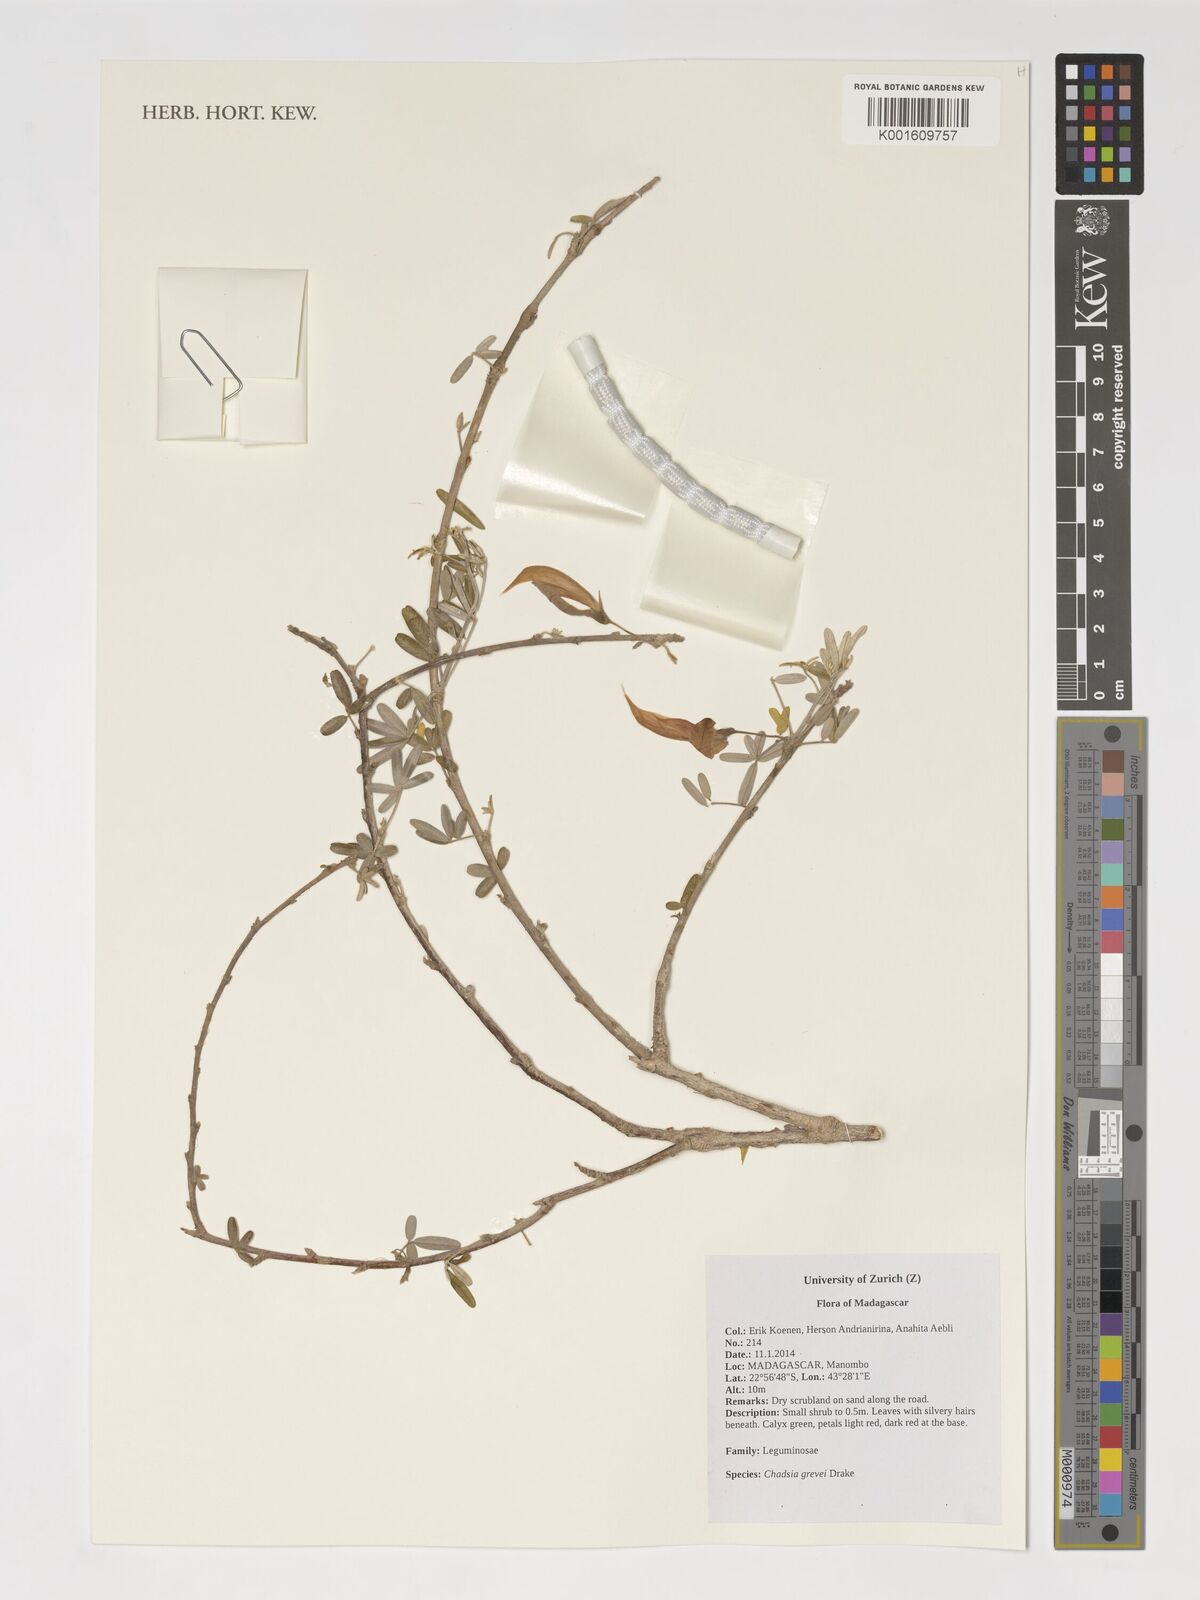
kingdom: Plantae
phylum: Tracheophyta
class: Magnoliopsida
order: Fabales
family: Fabaceae
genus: Chadsia
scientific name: Chadsia grevei
